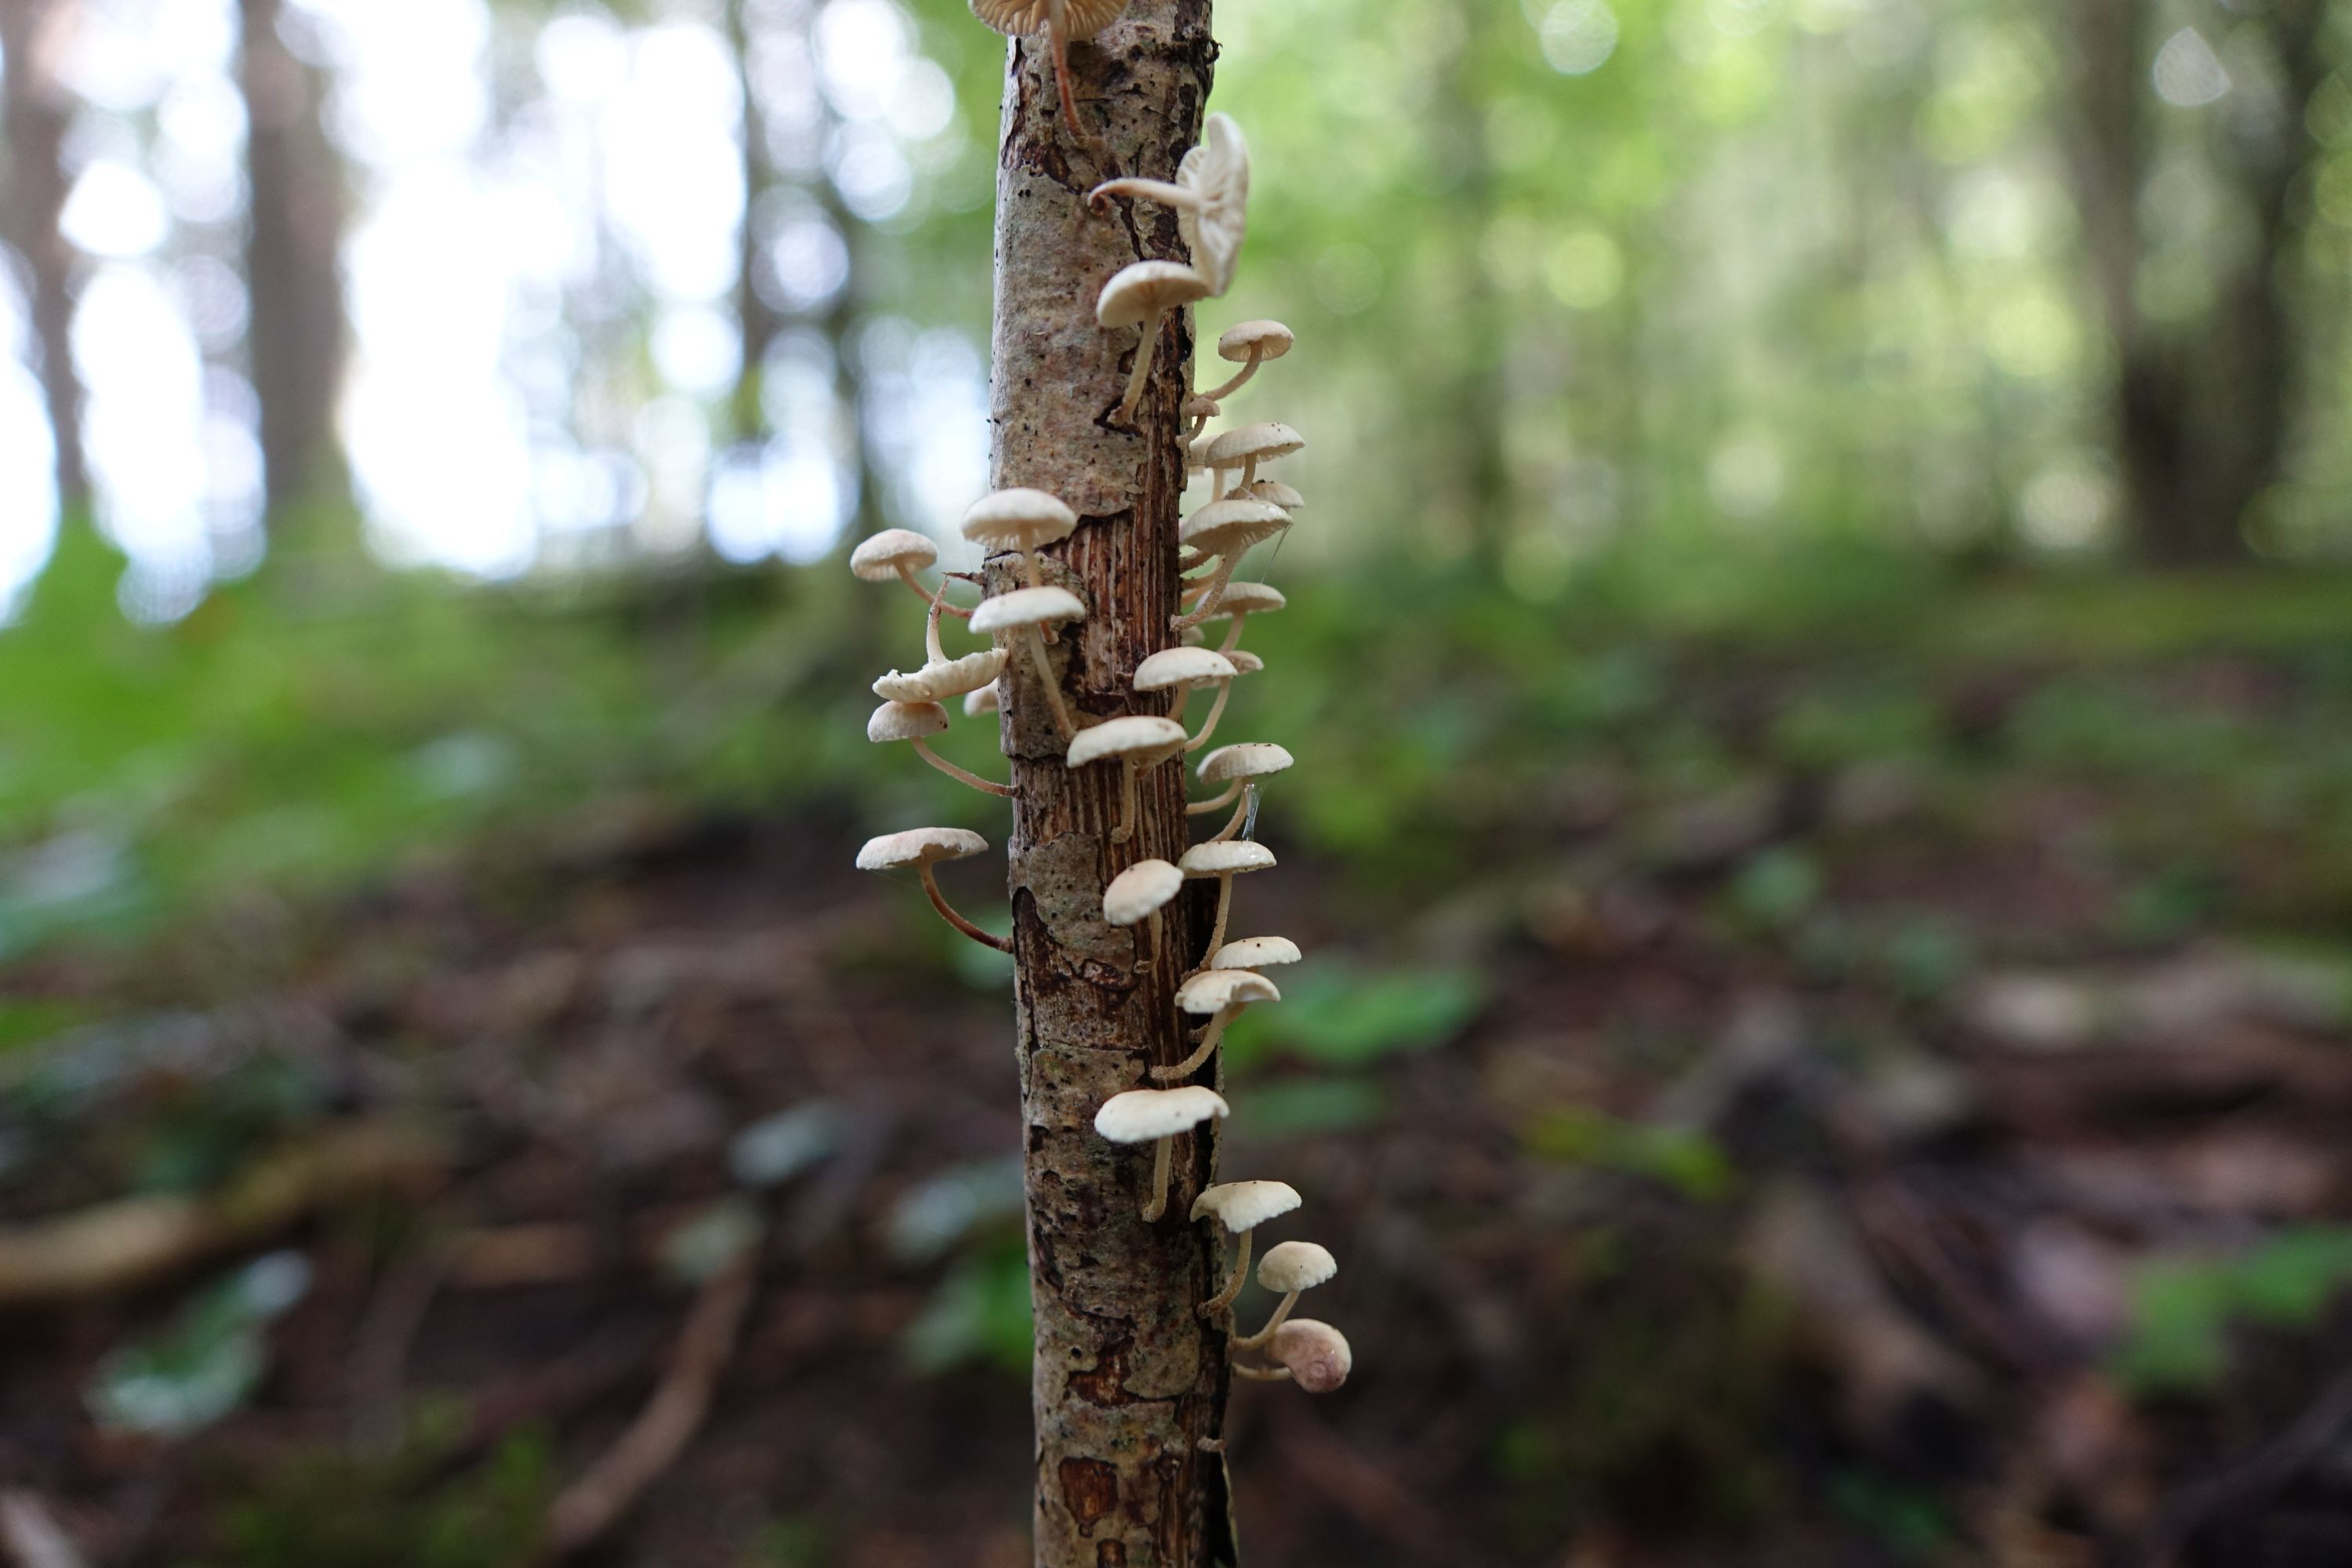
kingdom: Fungi
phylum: Basidiomycota
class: Agaricomycetes
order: Agaricales
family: Omphalotaceae
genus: Collybiopsis
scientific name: Collybiopsis ramealis
